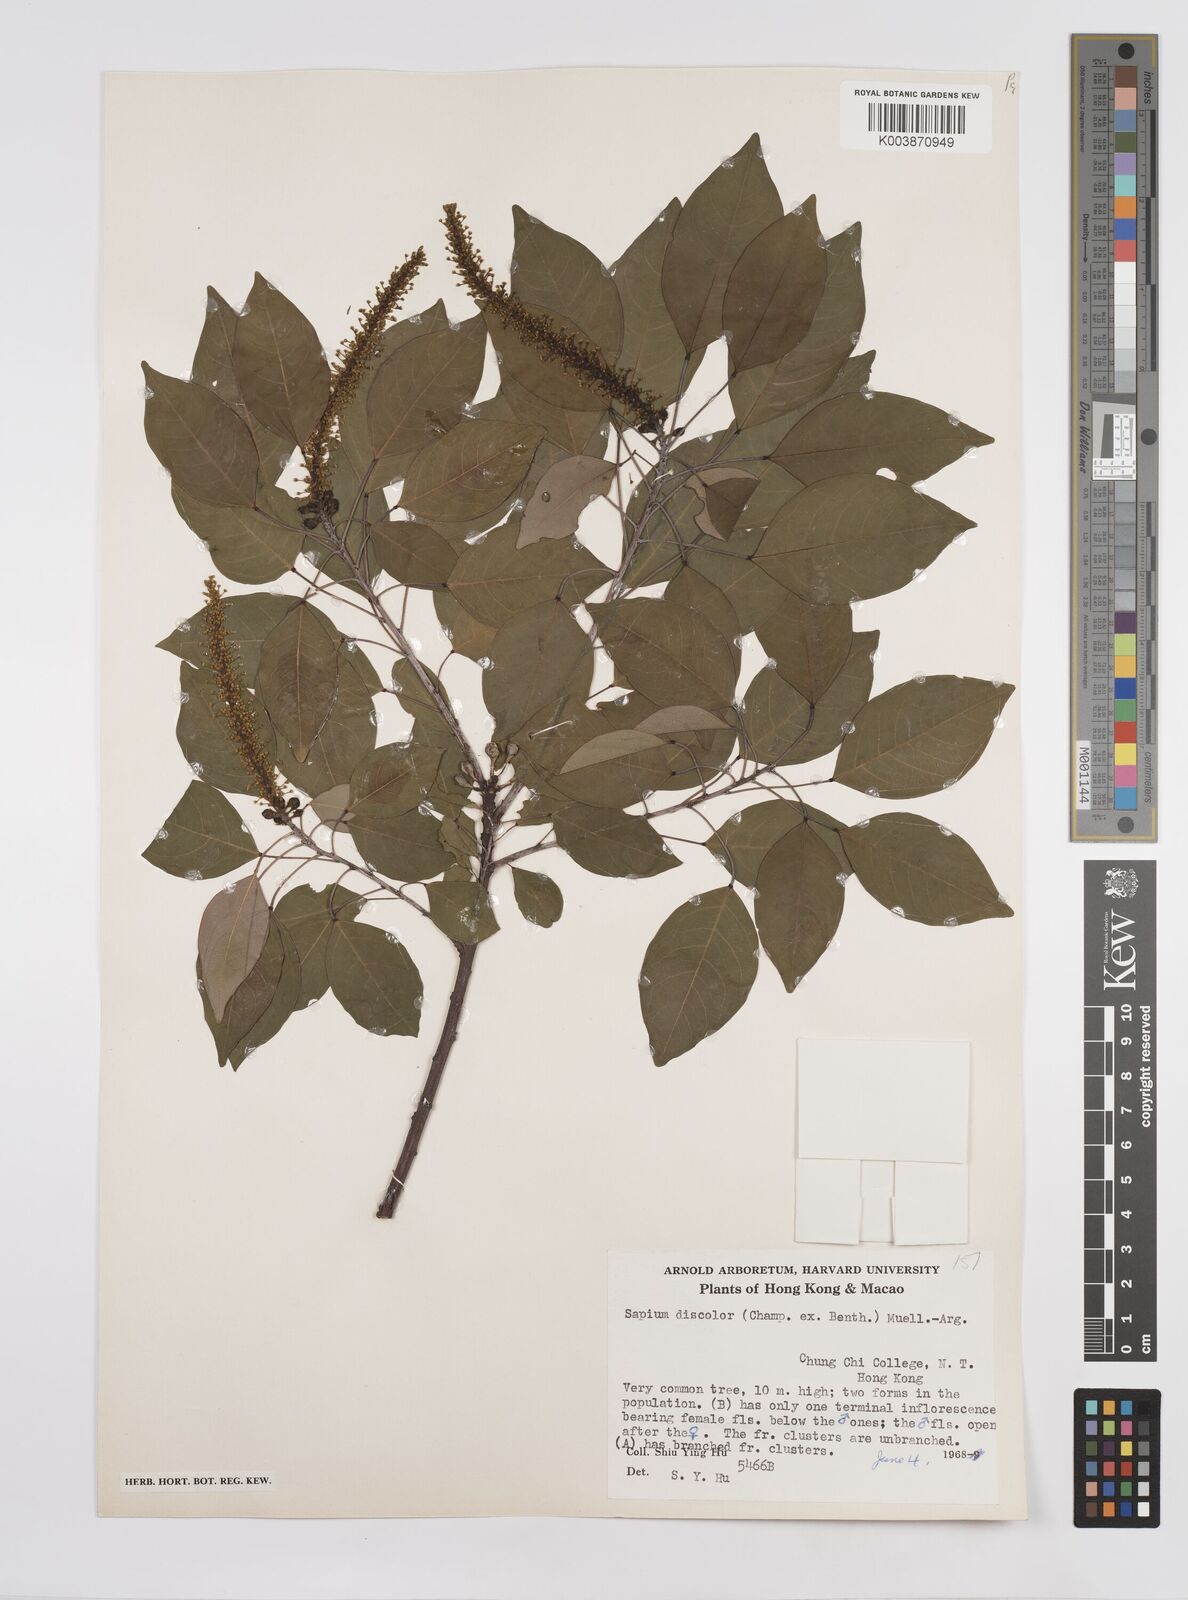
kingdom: Plantae
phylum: Tracheophyta
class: Magnoliopsida
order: Malpighiales
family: Euphorbiaceae
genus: Triadica
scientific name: Triadica cochinchinensis
